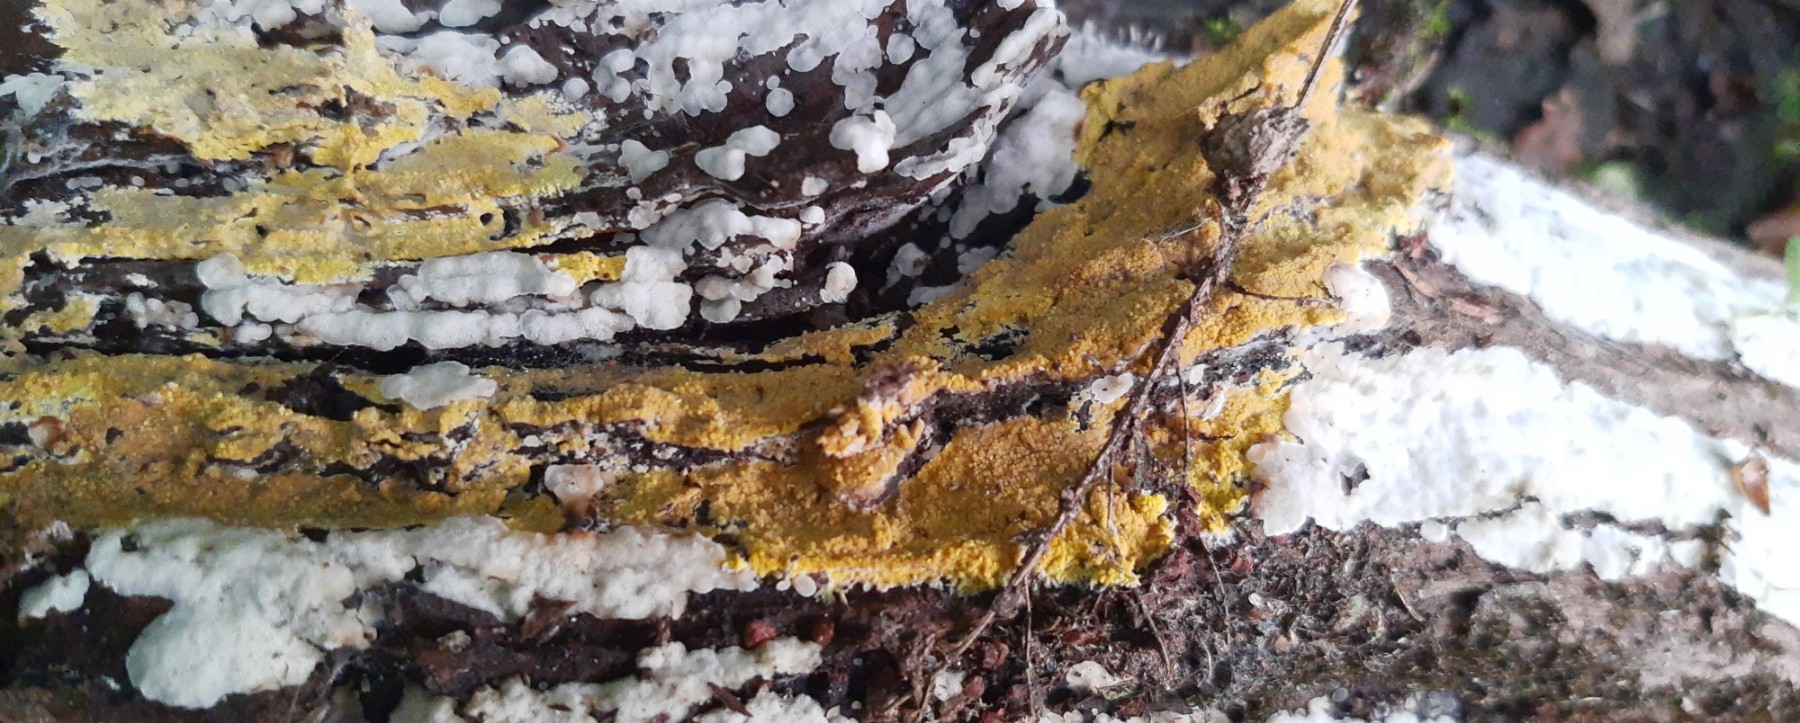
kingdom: Fungi
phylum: Basidiomycota
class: Agaricomycetes
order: Polyporales
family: Meruliaceae
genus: Phlebiodontia
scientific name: Phlebiodontia subochracea
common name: svovl-åresvamp
